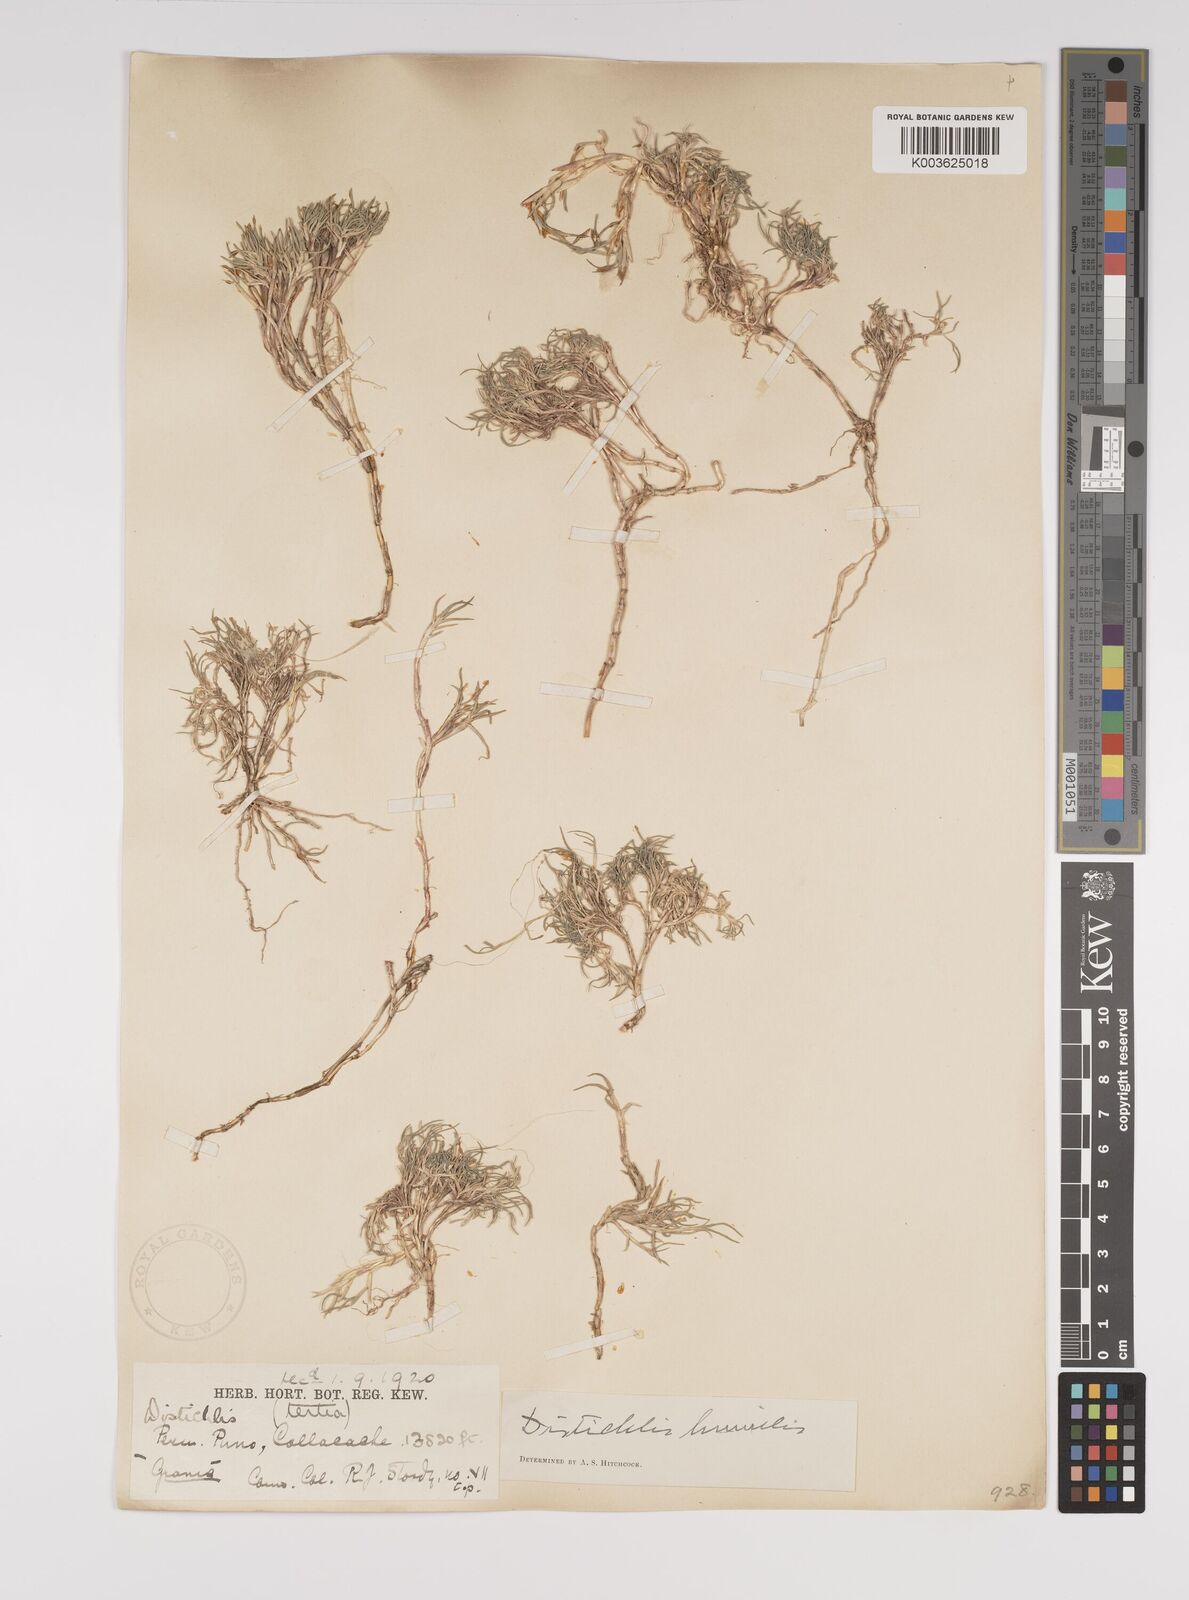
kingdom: Plantae
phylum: Tracheophyta
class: Liliopsida
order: Poales
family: Poaceae
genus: Distichlis
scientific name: Distichlis humilis
